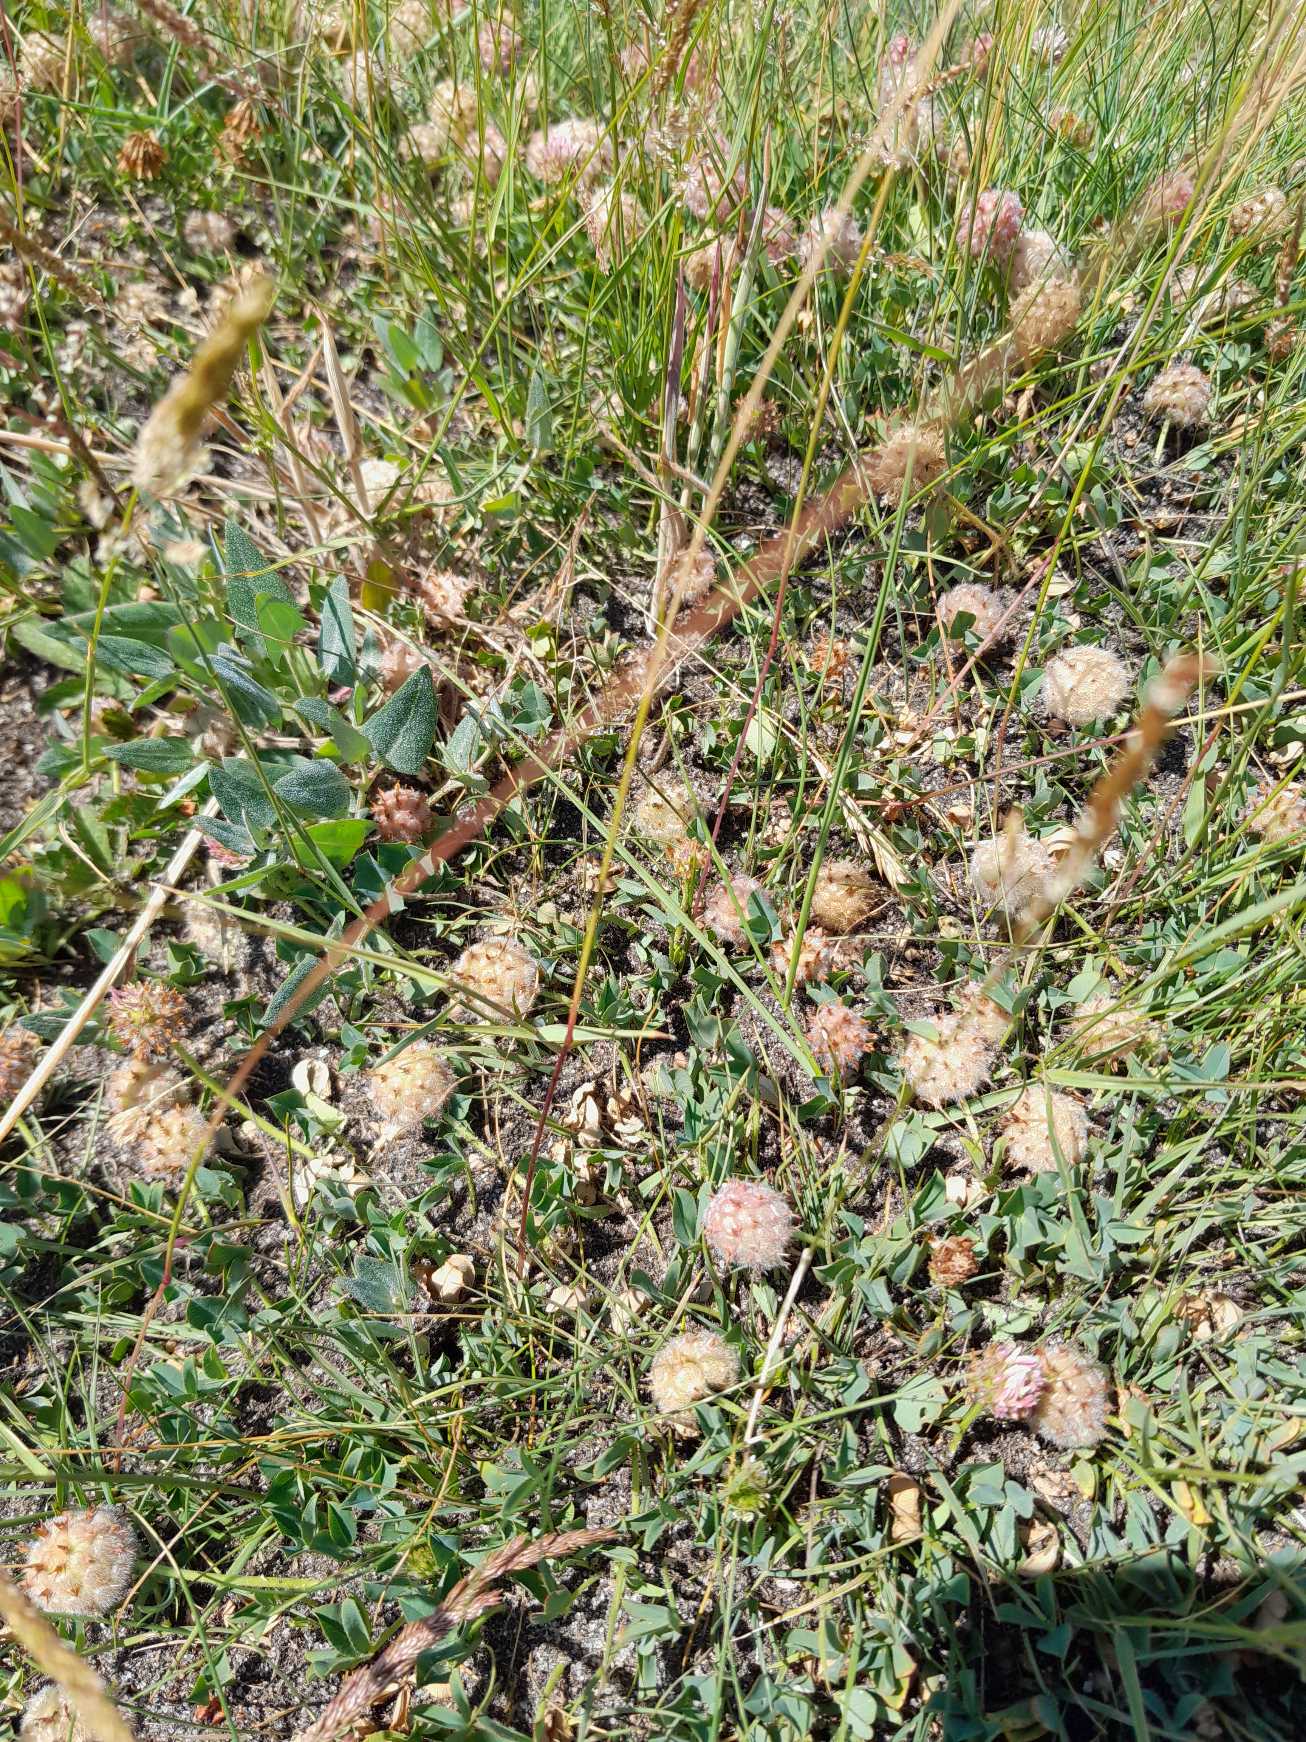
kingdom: Plantae
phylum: Tracheophyta
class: Magnoliopsida
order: Fabales
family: Fabaceae
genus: Trifolium
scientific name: Trifolium fragiferum
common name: Jordbær-kløver
